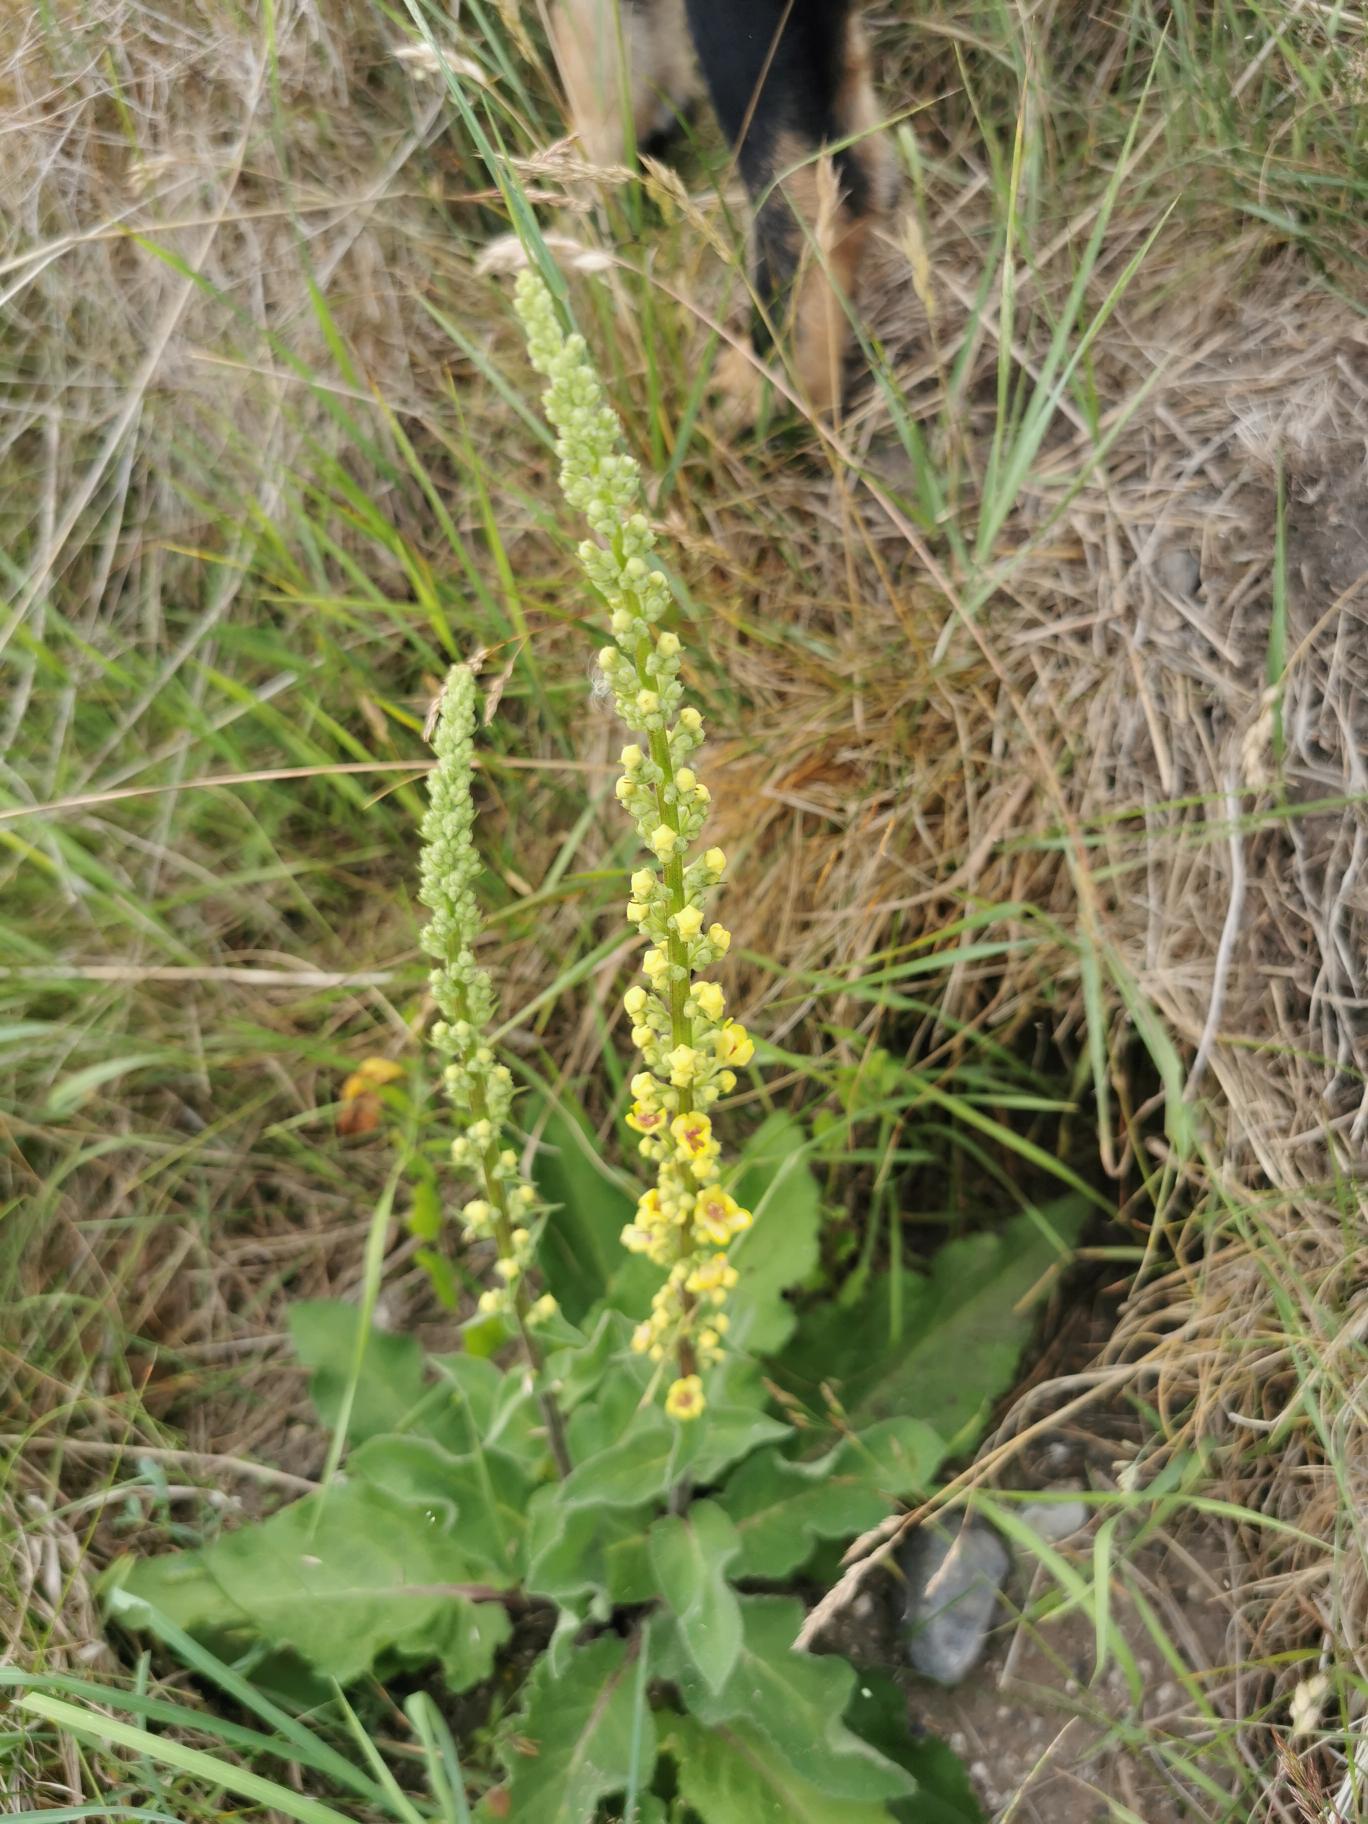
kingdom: Plantae
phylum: Tracheophyta
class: Magnoliopsida
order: Lamiales
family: Scrophulariaceae
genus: Verbascum
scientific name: Verbascum nigrum
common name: Mørk kongelys
